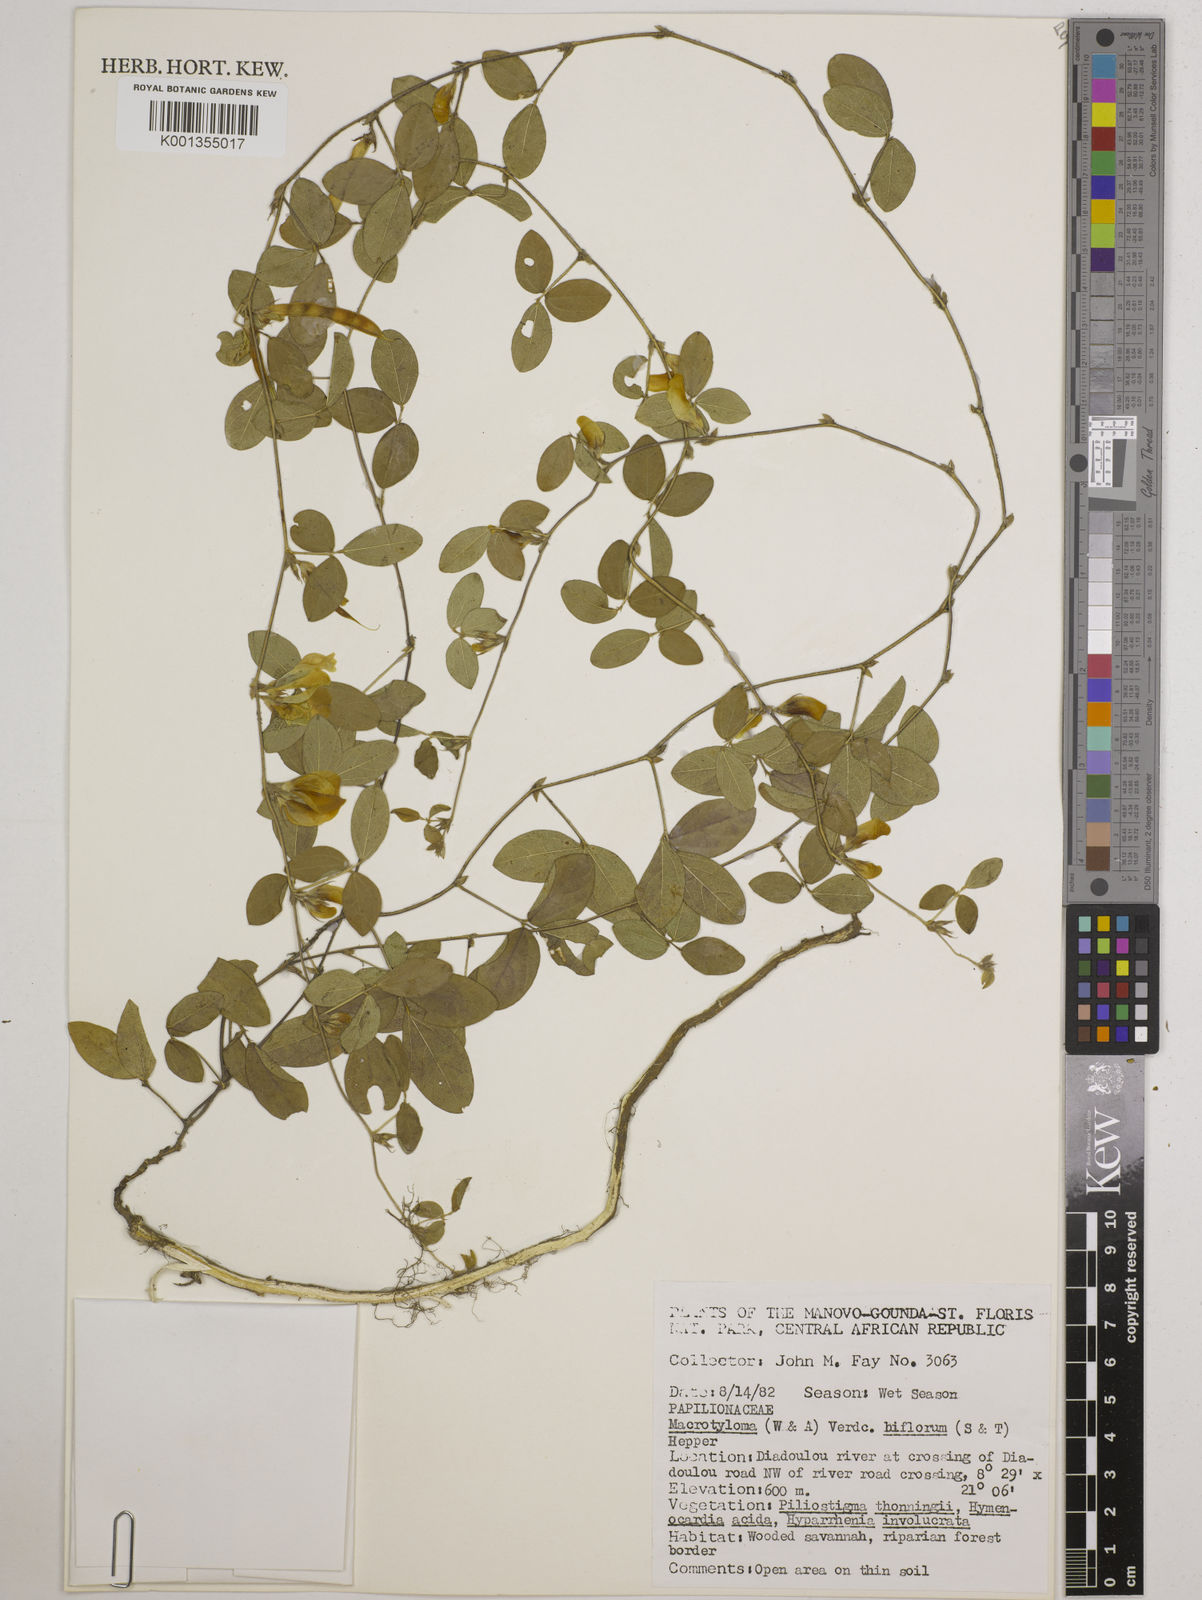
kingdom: Plantae
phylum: Tracheophyta
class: Magnoliopsida
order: Fabales
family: Fabaceae
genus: Macrotyloma
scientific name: Macrotyloma biflorum
